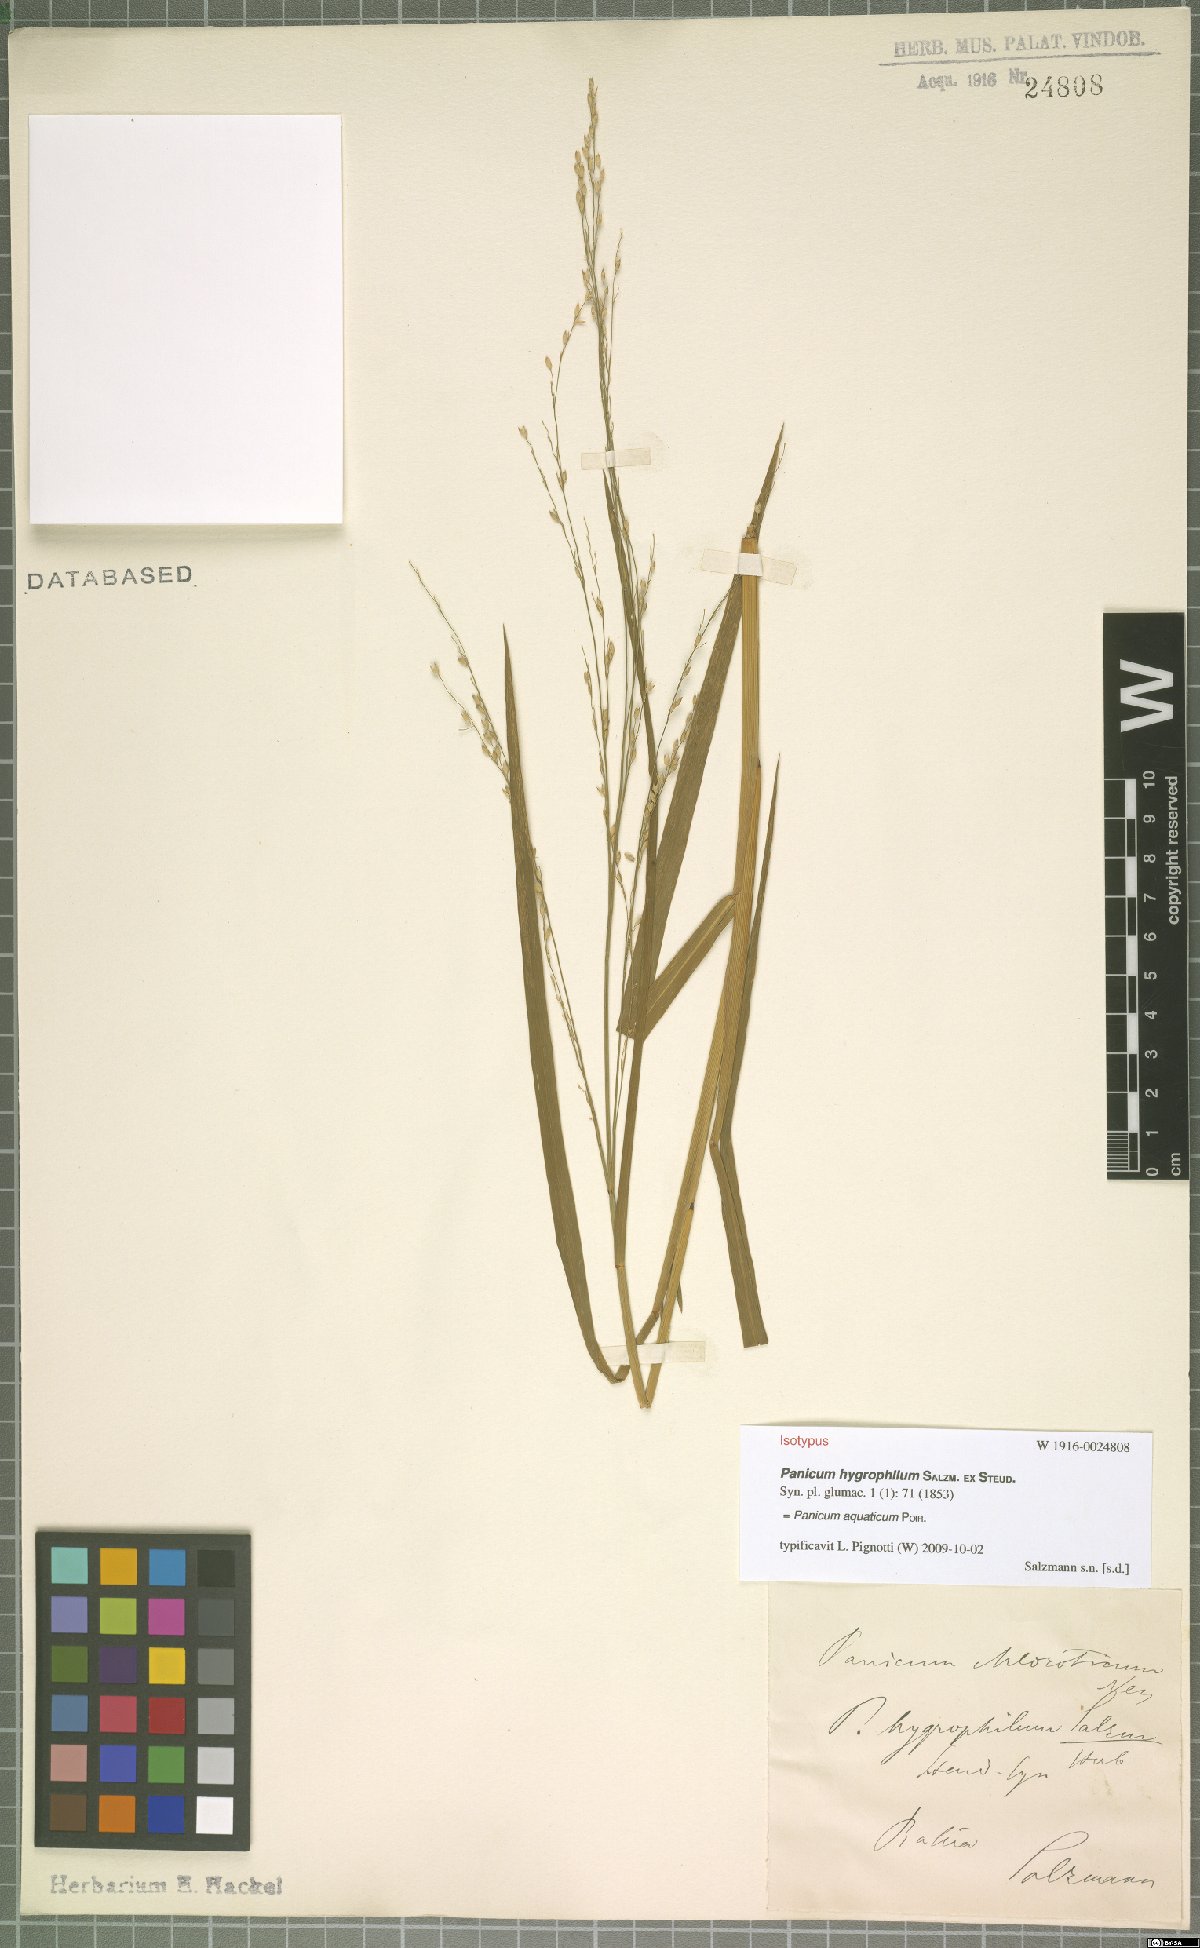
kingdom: Plantae
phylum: Tracheophyta
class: Liliopsida
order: Poales
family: Poaceae
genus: Panicum
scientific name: Panicum aquaticum
